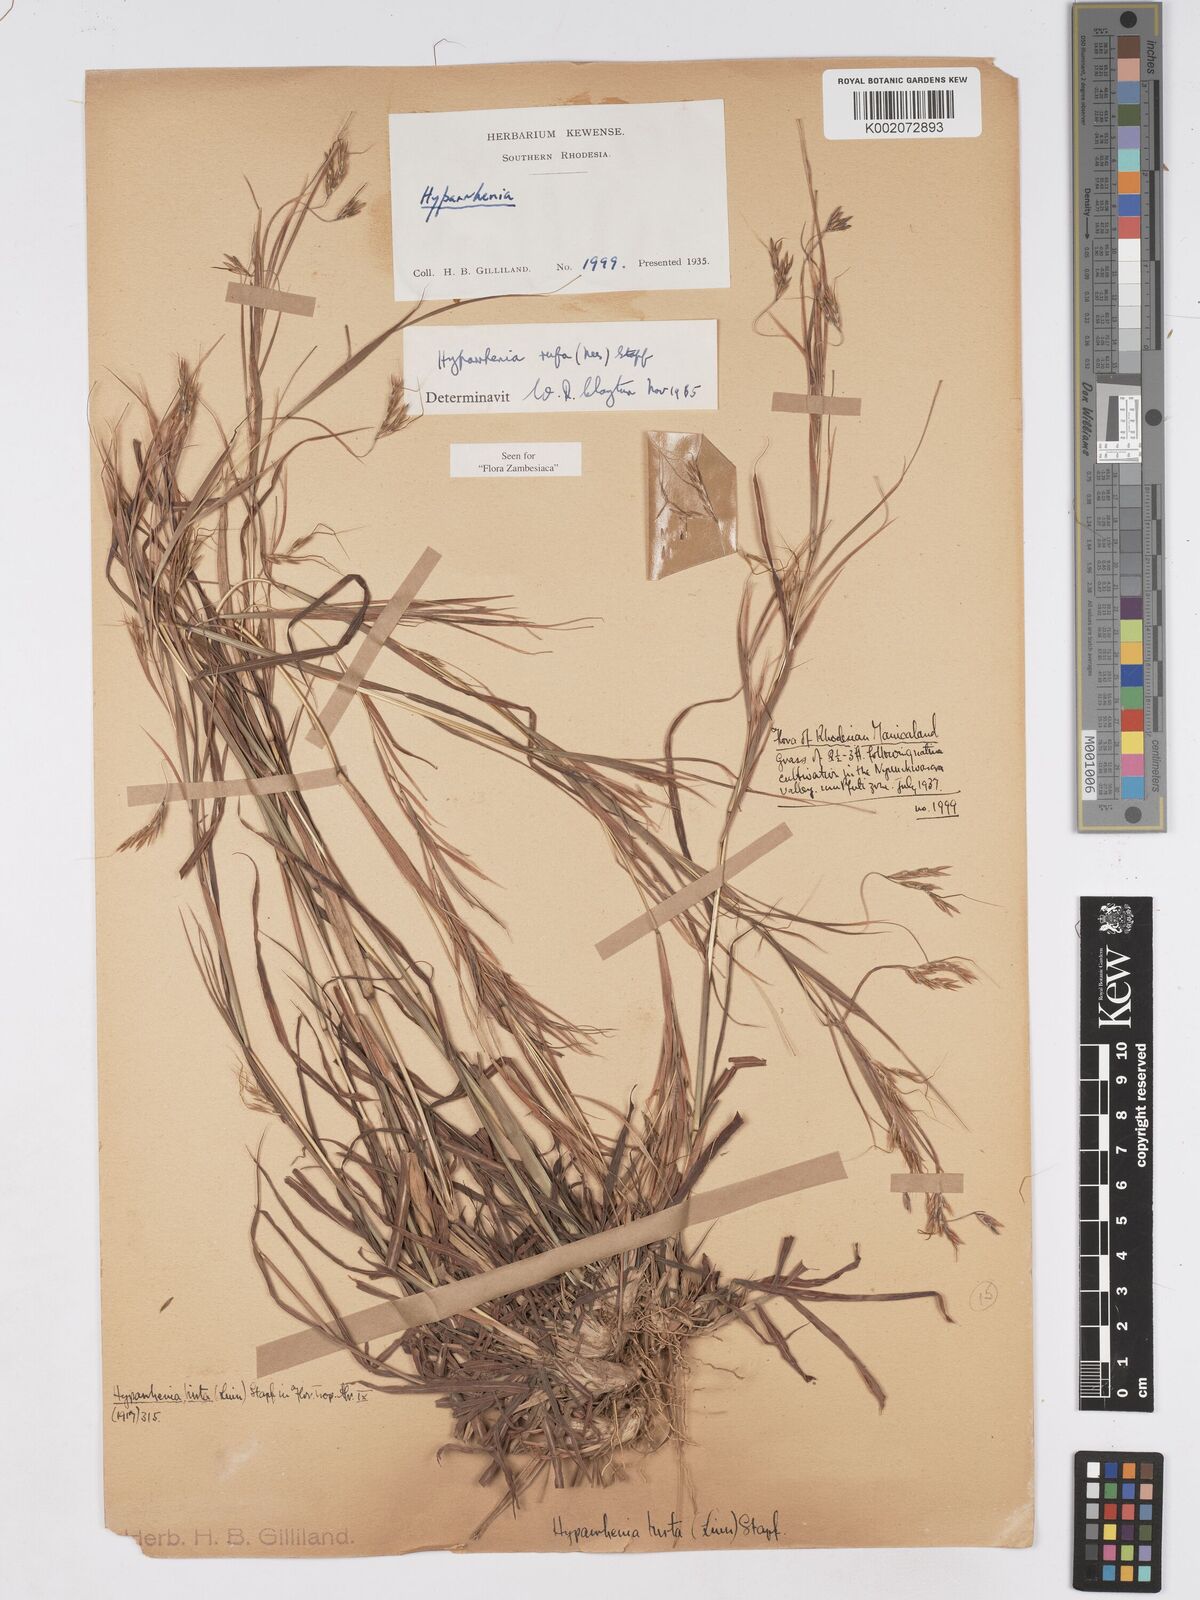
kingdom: Plantae
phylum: Tracheophyta
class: Liliopsida
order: Poales
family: Poaceae
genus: Hyparrhenia
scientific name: Hyparrhenia rufa
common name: Jaraguagrass
